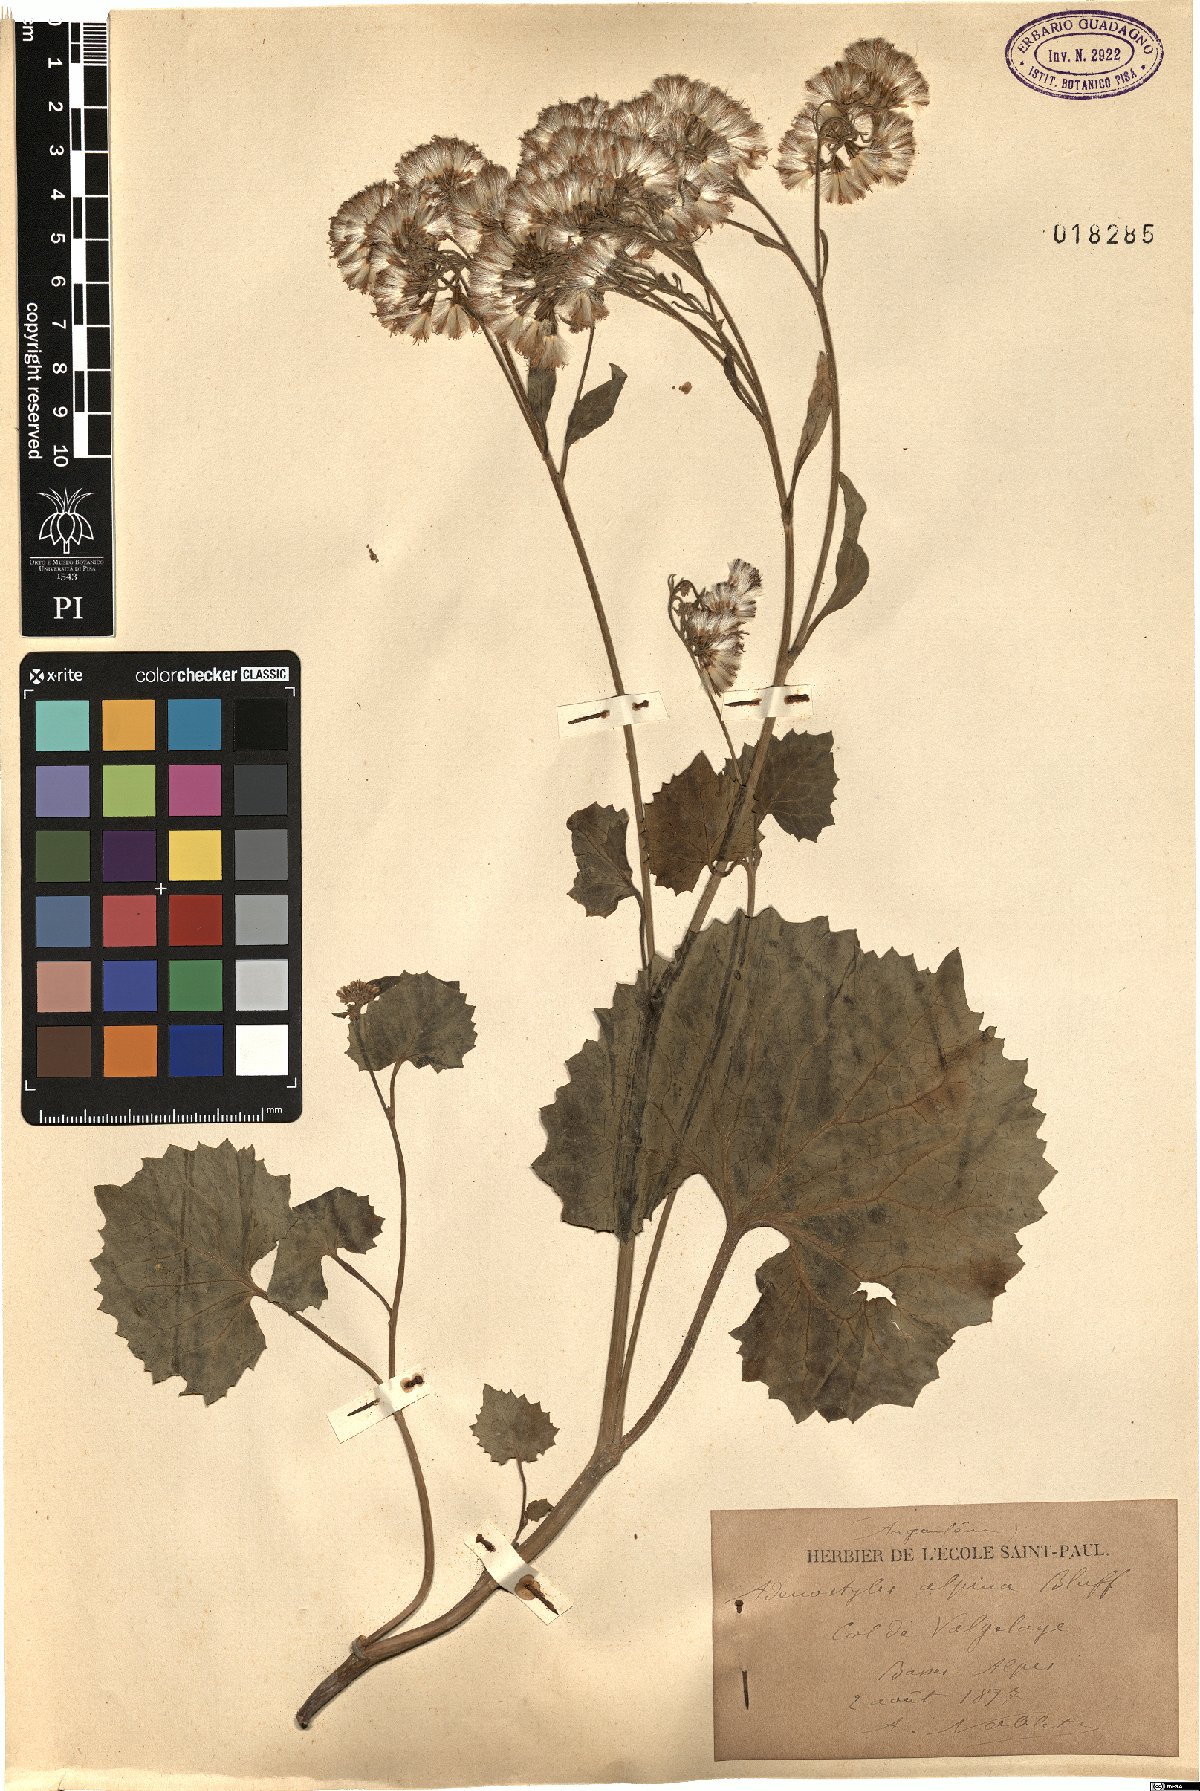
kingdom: Plantae
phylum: Tracheophyta
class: Magnoliopsida
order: Asterales
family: Asteraceae
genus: Adenostyles
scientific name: Adenostyles alpina
